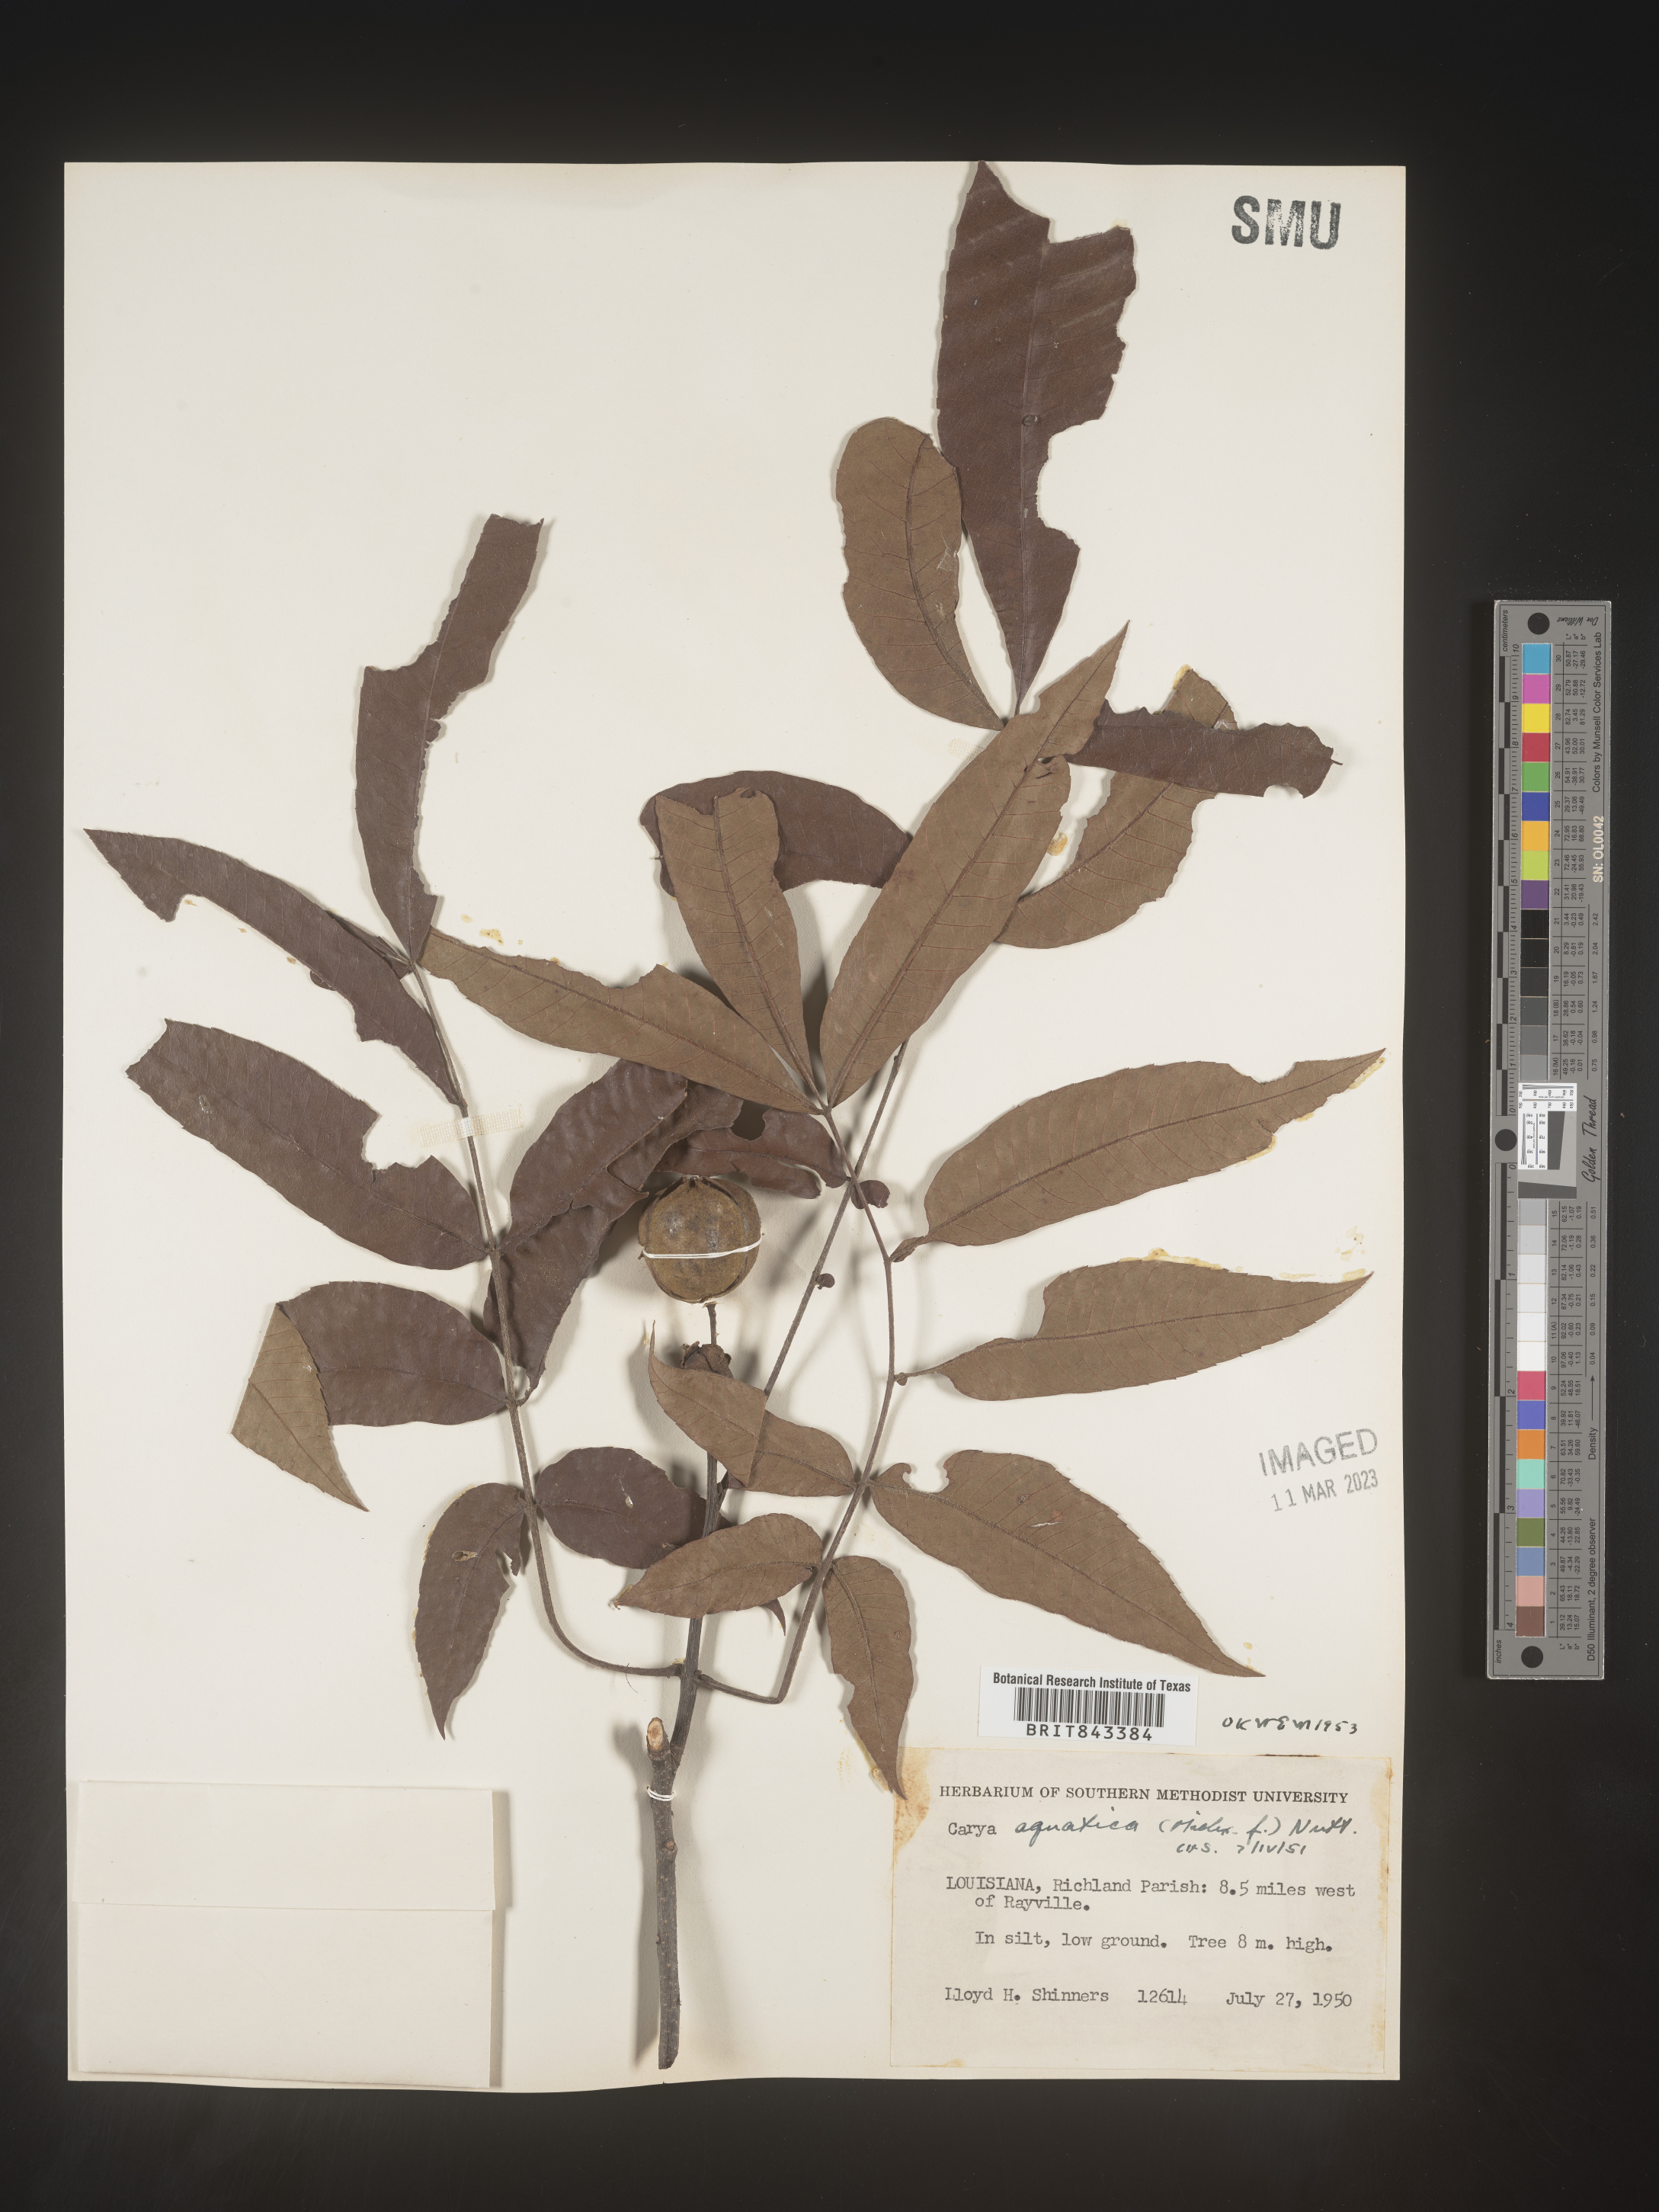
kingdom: Plantae
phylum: Tracheophyta
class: Magnoliopsida
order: Fagales
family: Juglandaceae
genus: Carya
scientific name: Carya aquatica
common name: Water hickory
